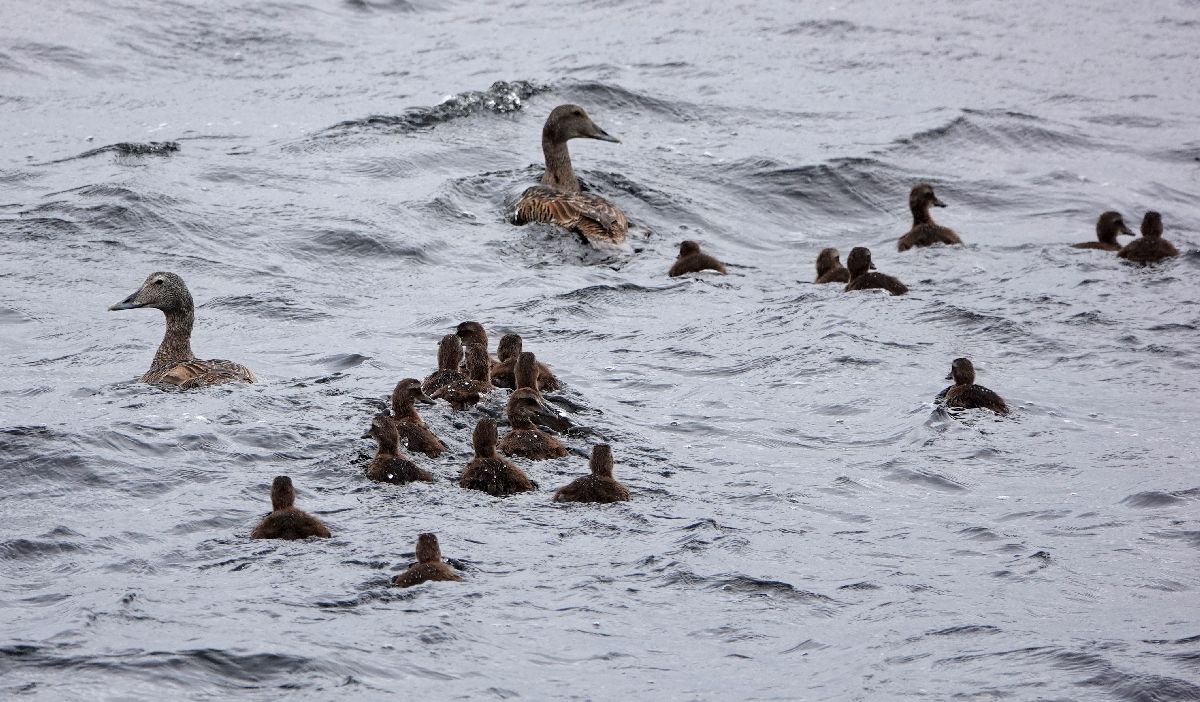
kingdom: Animalia
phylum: Chordata
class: Aves
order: Anseriformes
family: Anatidae
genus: Somateria
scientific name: Somateria mollissima
